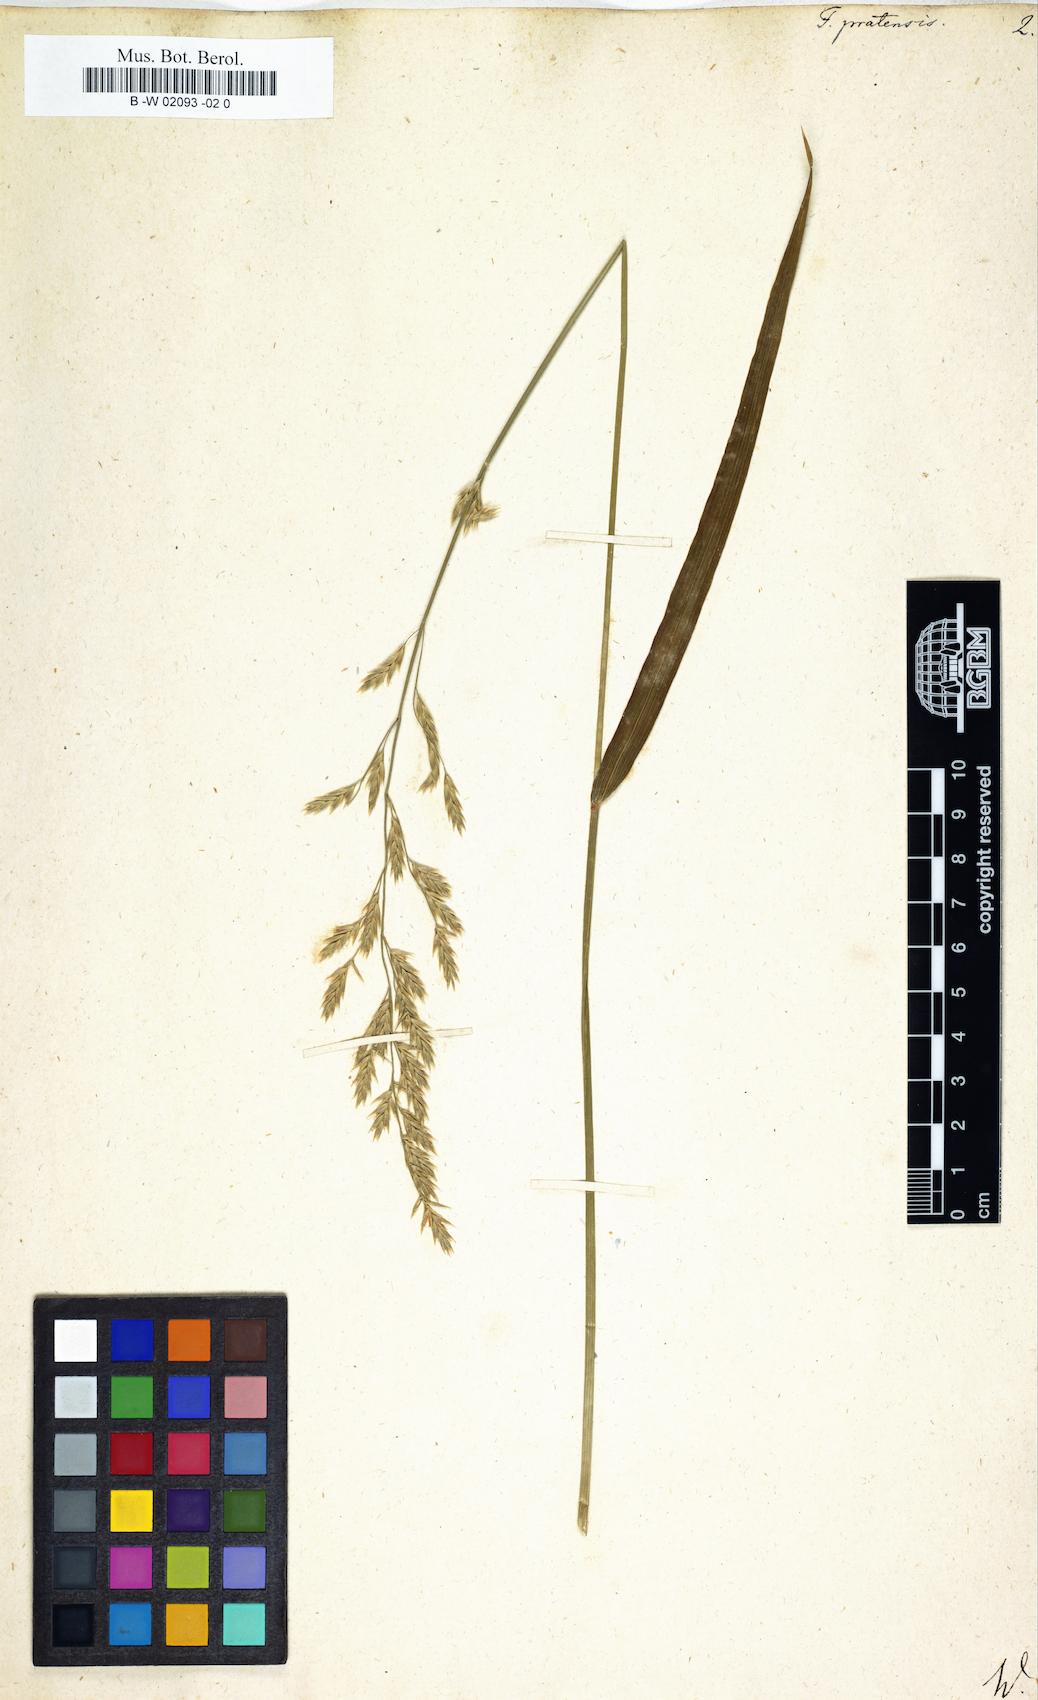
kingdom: Plantae
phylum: Tracheophyta
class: Liliopsida
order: Poales
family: Poaceae
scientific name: Poaceae
